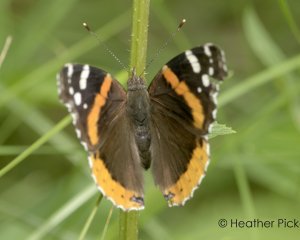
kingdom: Animalia
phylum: Arthropoda
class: Insecta
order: Lepidoptera
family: Nymphalidae
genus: Vanessa
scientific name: Vanessa atalanta
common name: Red Admiral
